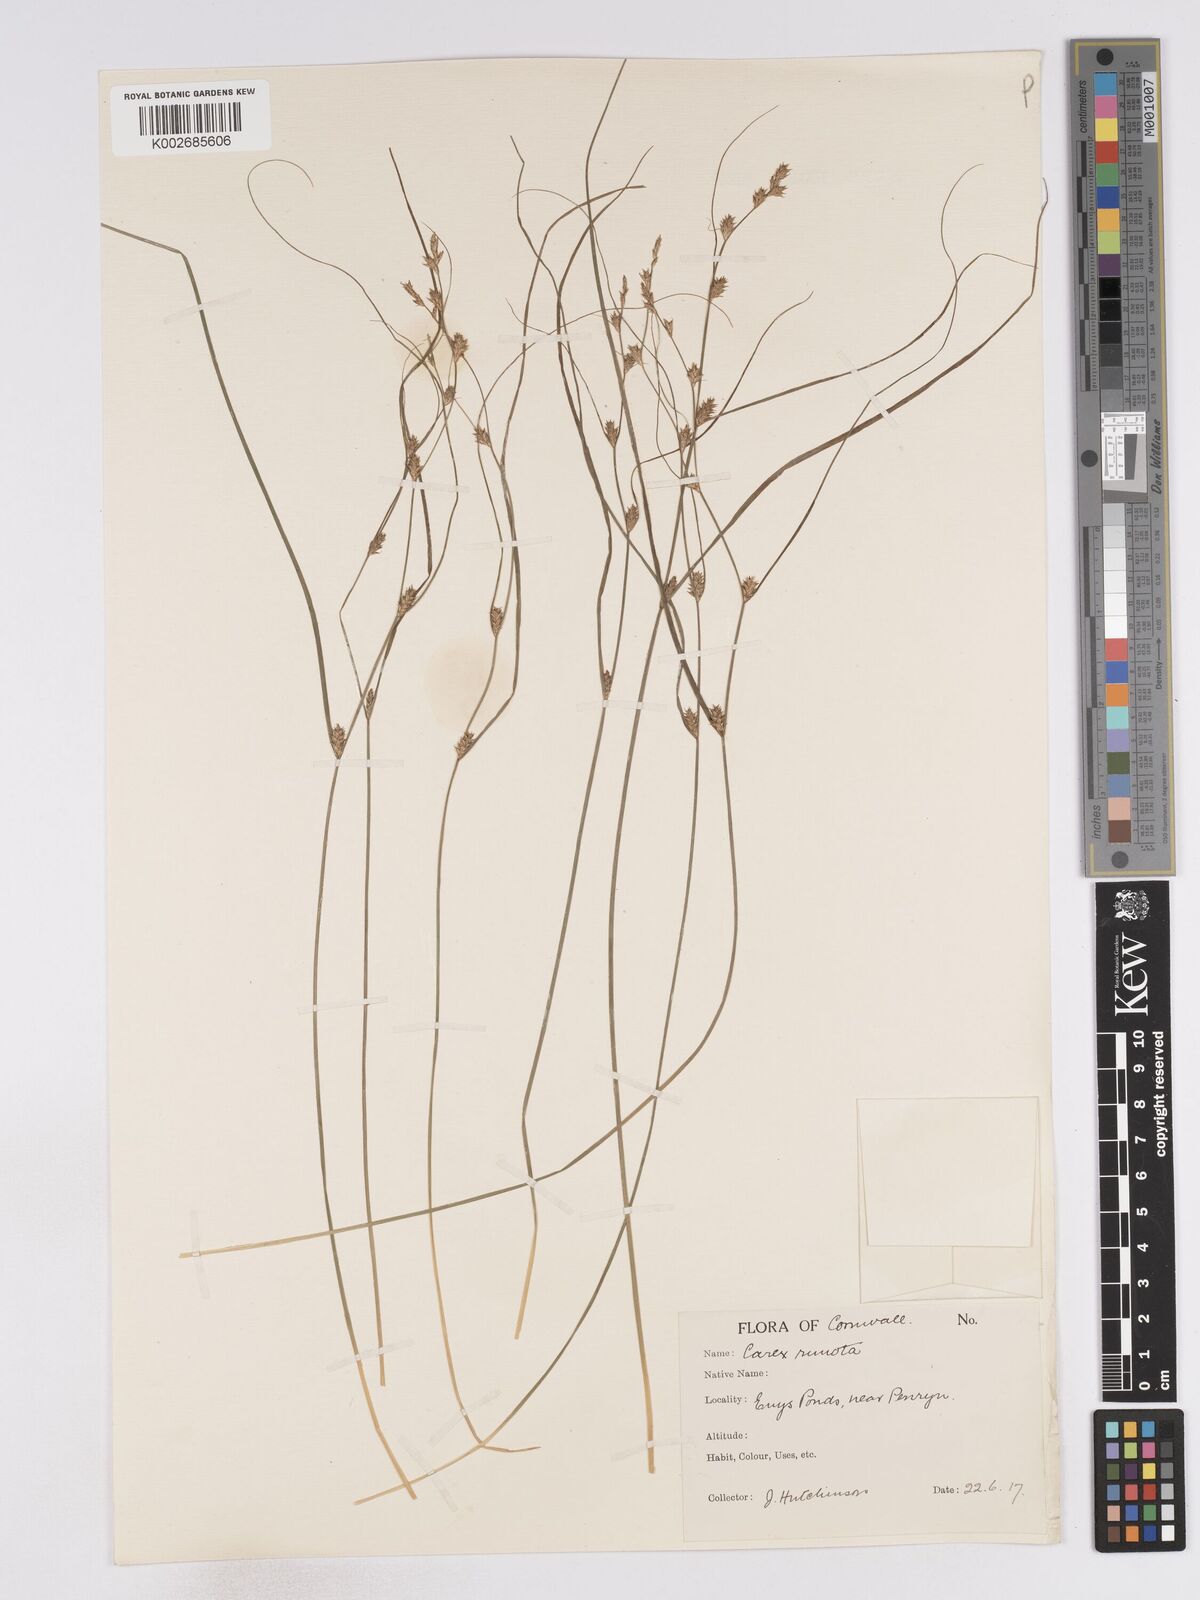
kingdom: Plantae
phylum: Tracheophyta
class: Liliopsida
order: Poales
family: Cyperaceae
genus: Carex
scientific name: Carex remota
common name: Remote sedge
